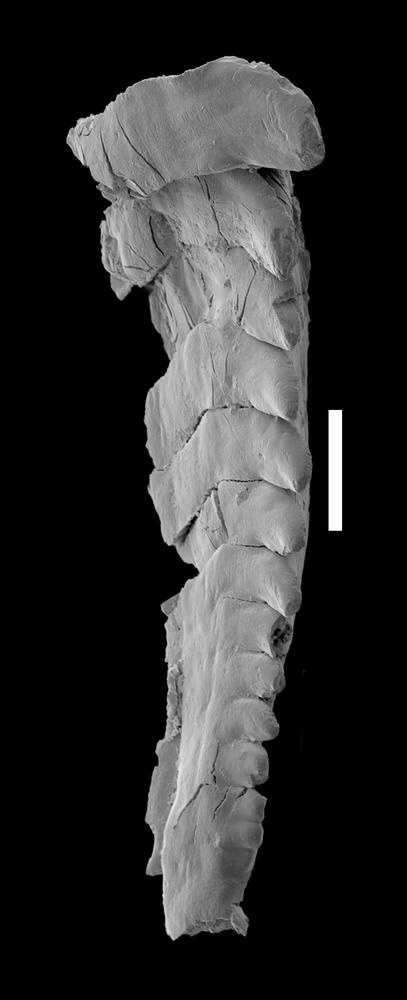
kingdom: Animalia
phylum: Annelida
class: Polychaeta
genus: Xanioprion
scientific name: Xanioprion
